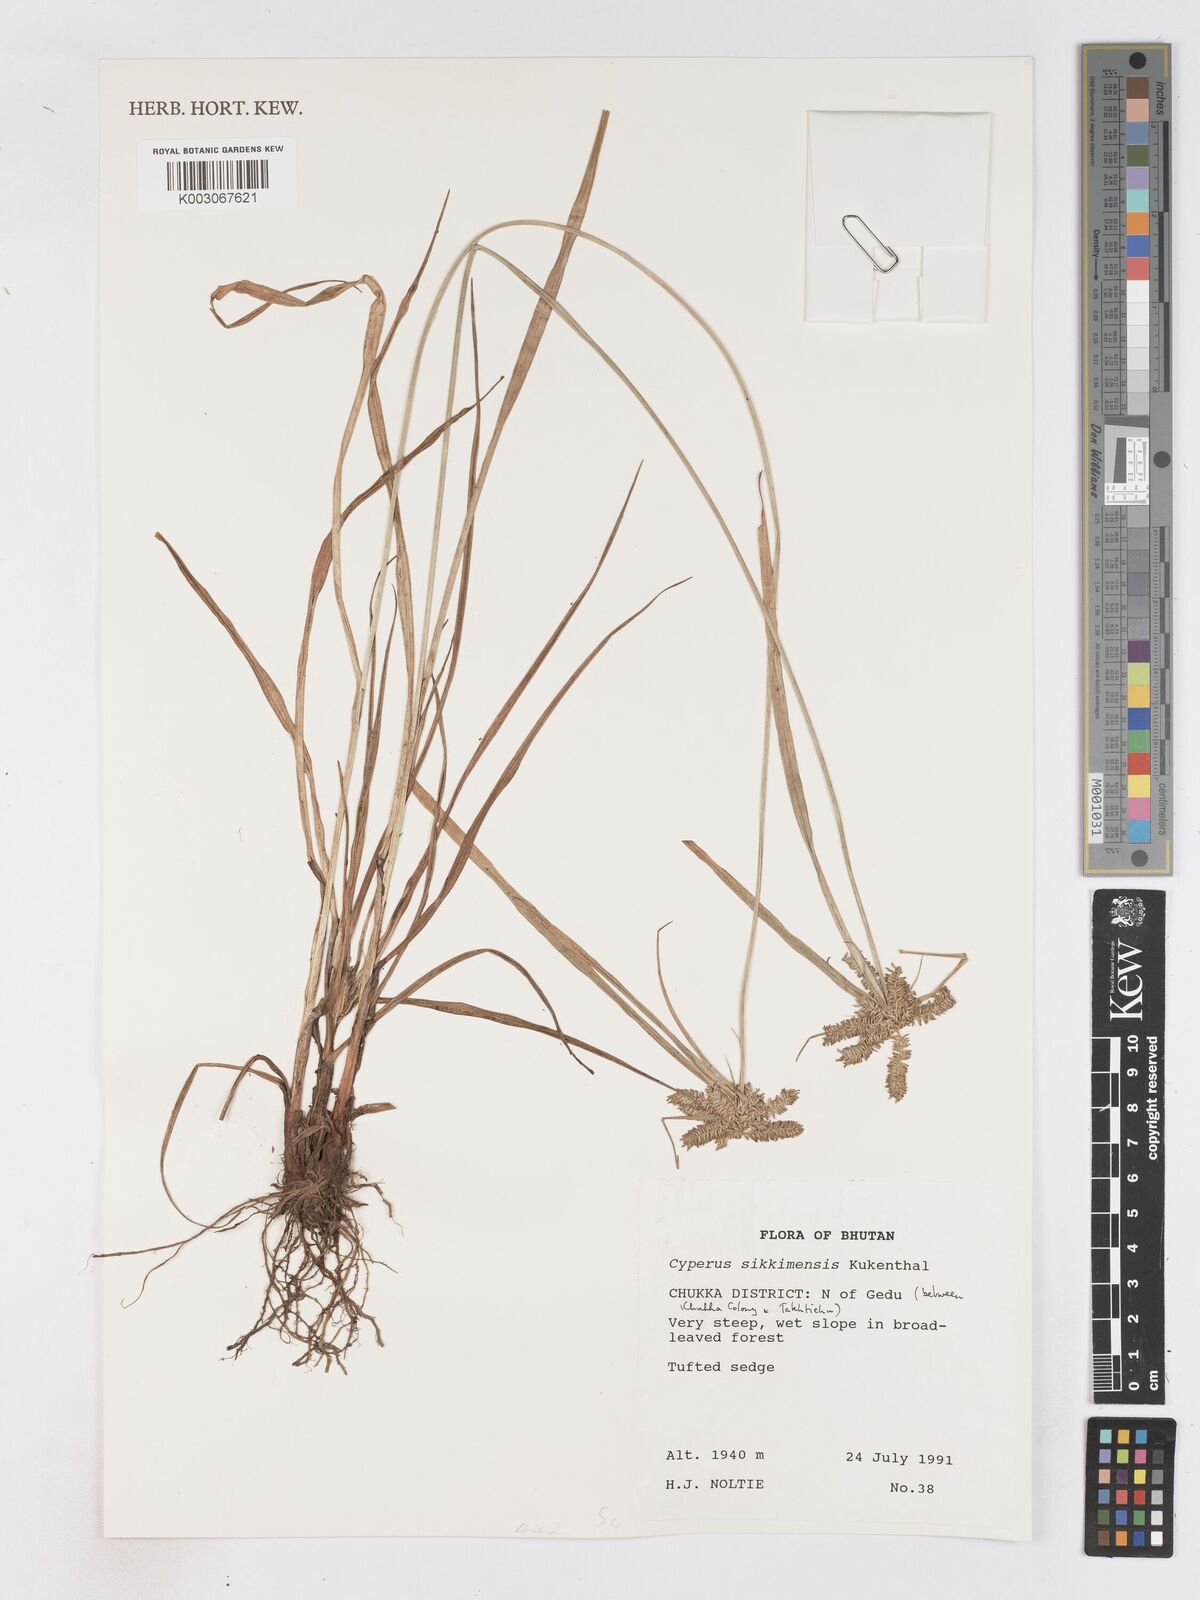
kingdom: Plantae
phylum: Tracheophyta
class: Liliopsida
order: Poales
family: Cyperaceae
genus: Cyperus
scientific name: Cyperus sikkimensis
